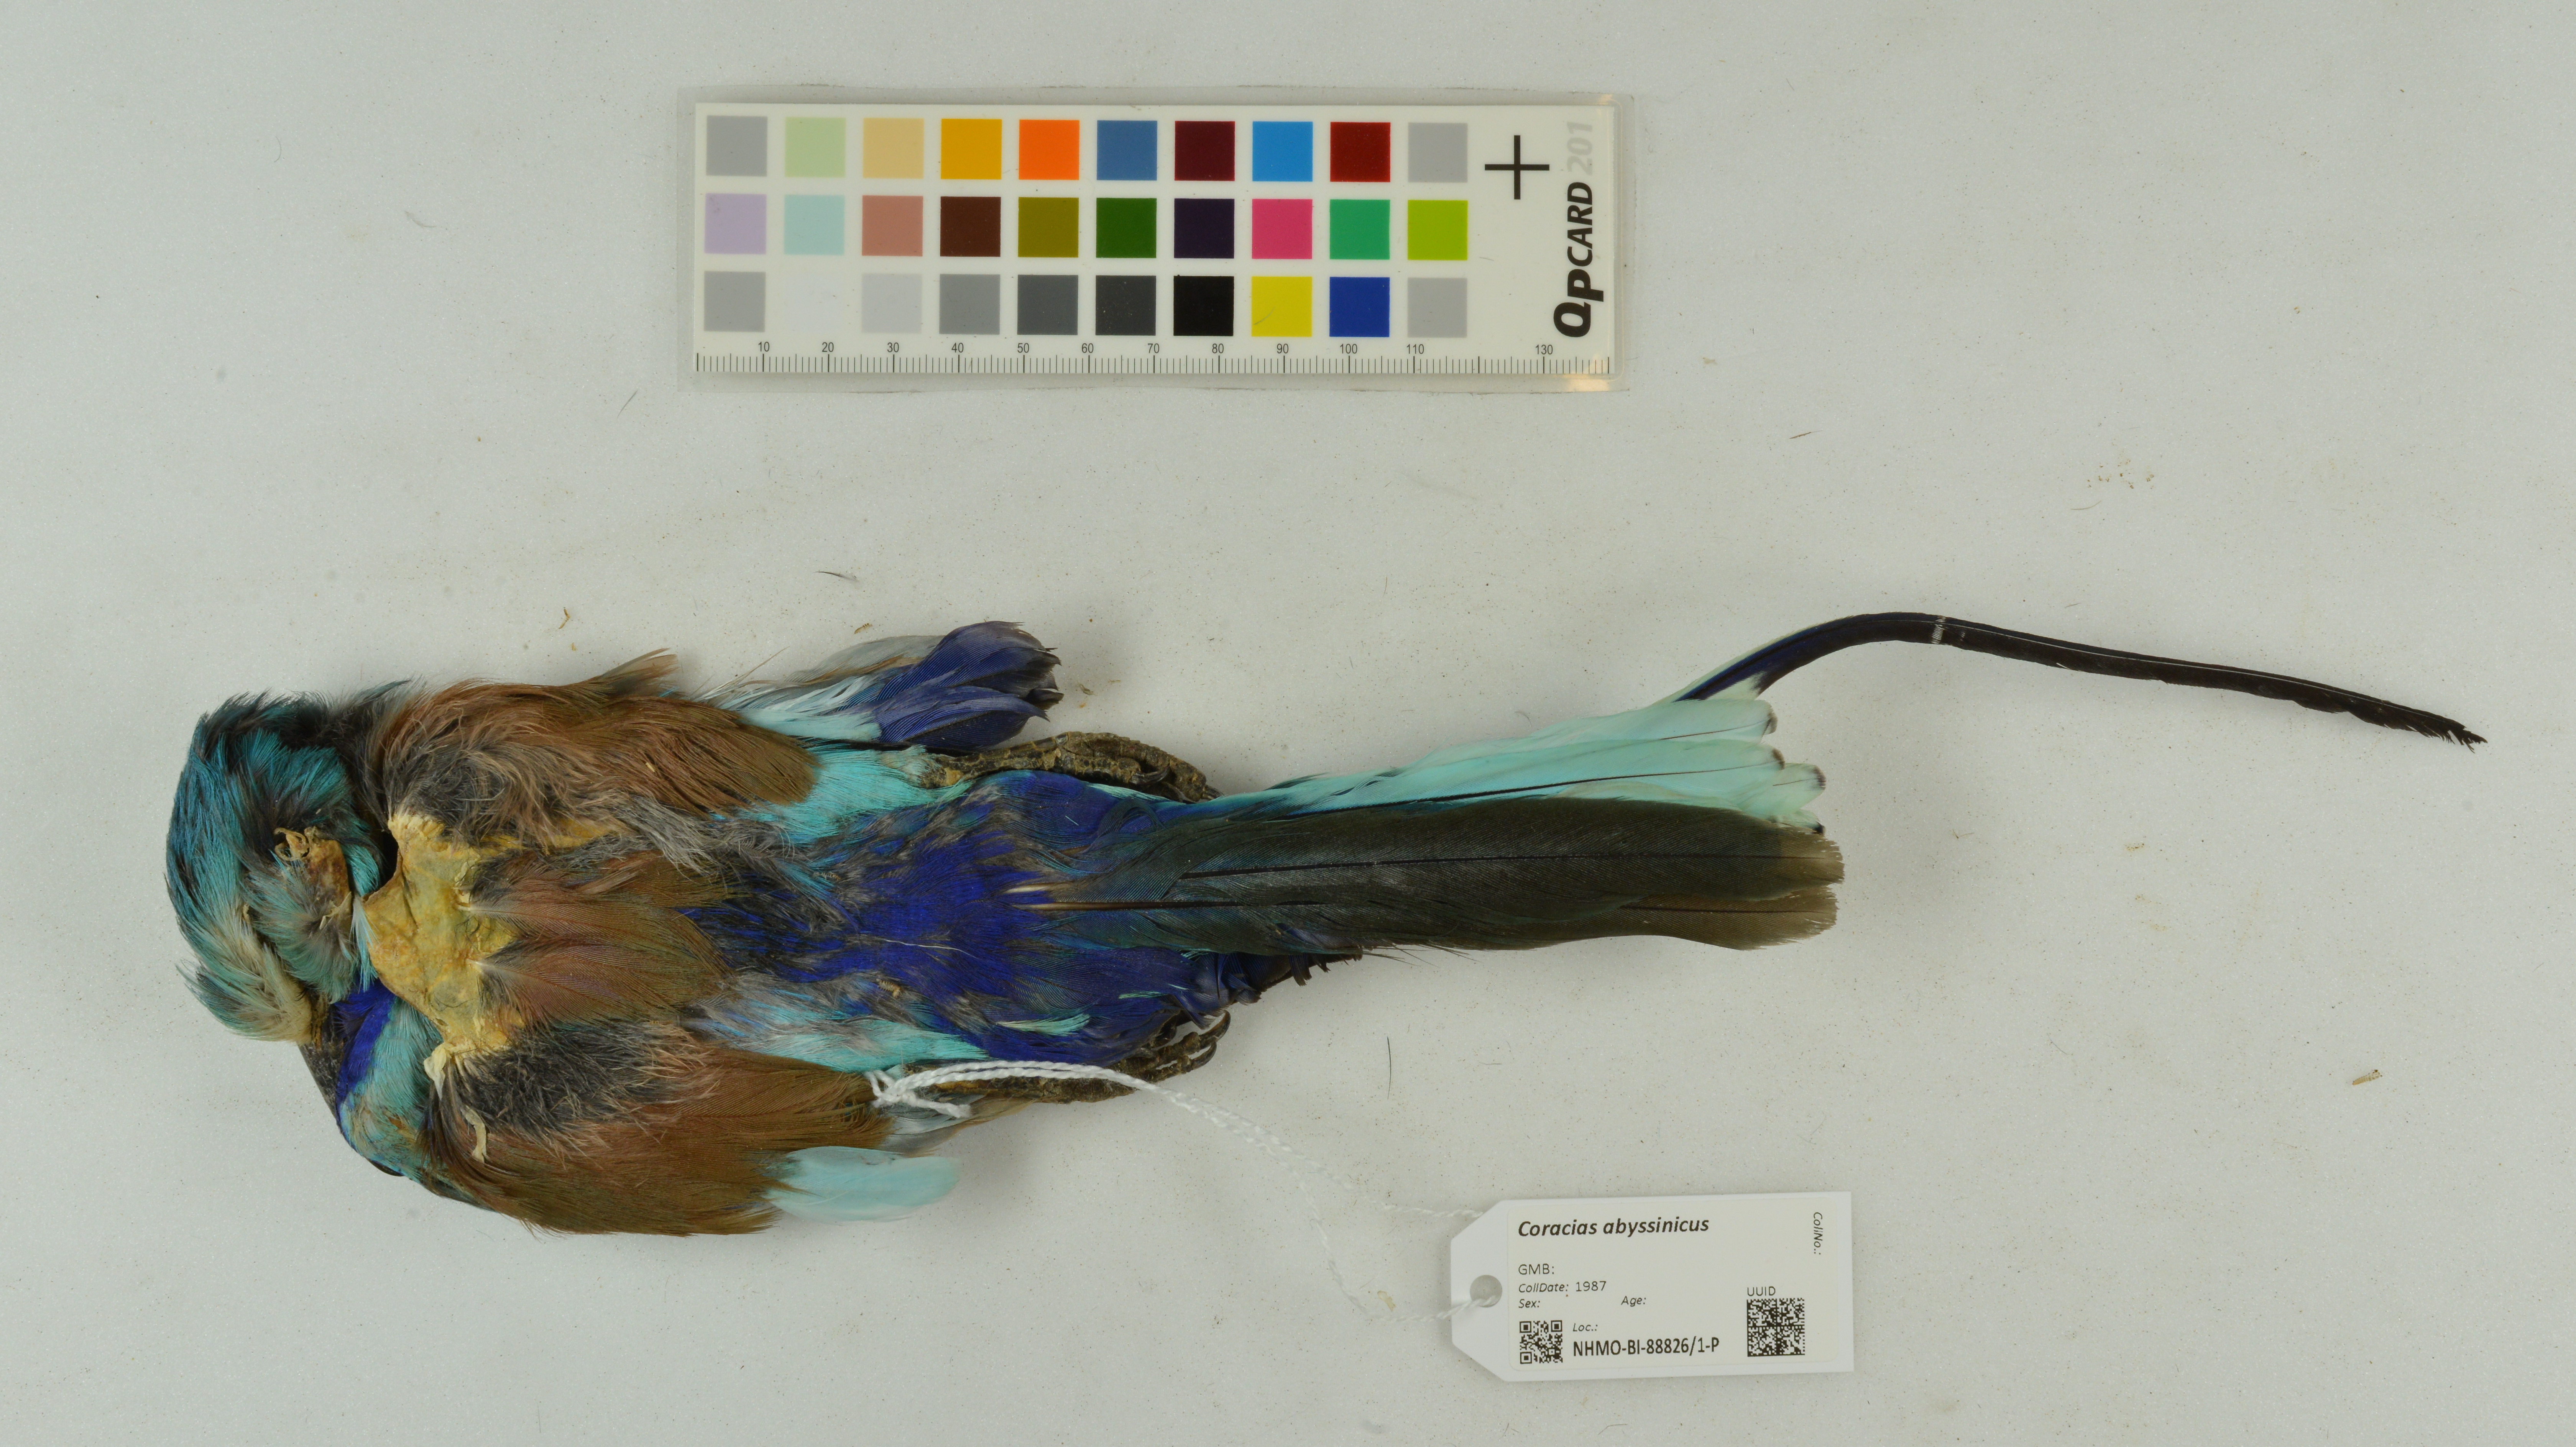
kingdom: Animalia
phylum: Chordata
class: Aves
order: Coraciiformes
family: Coraciidae
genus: Coracias
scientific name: Coracias abyssinicus
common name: Abyssinian roller
